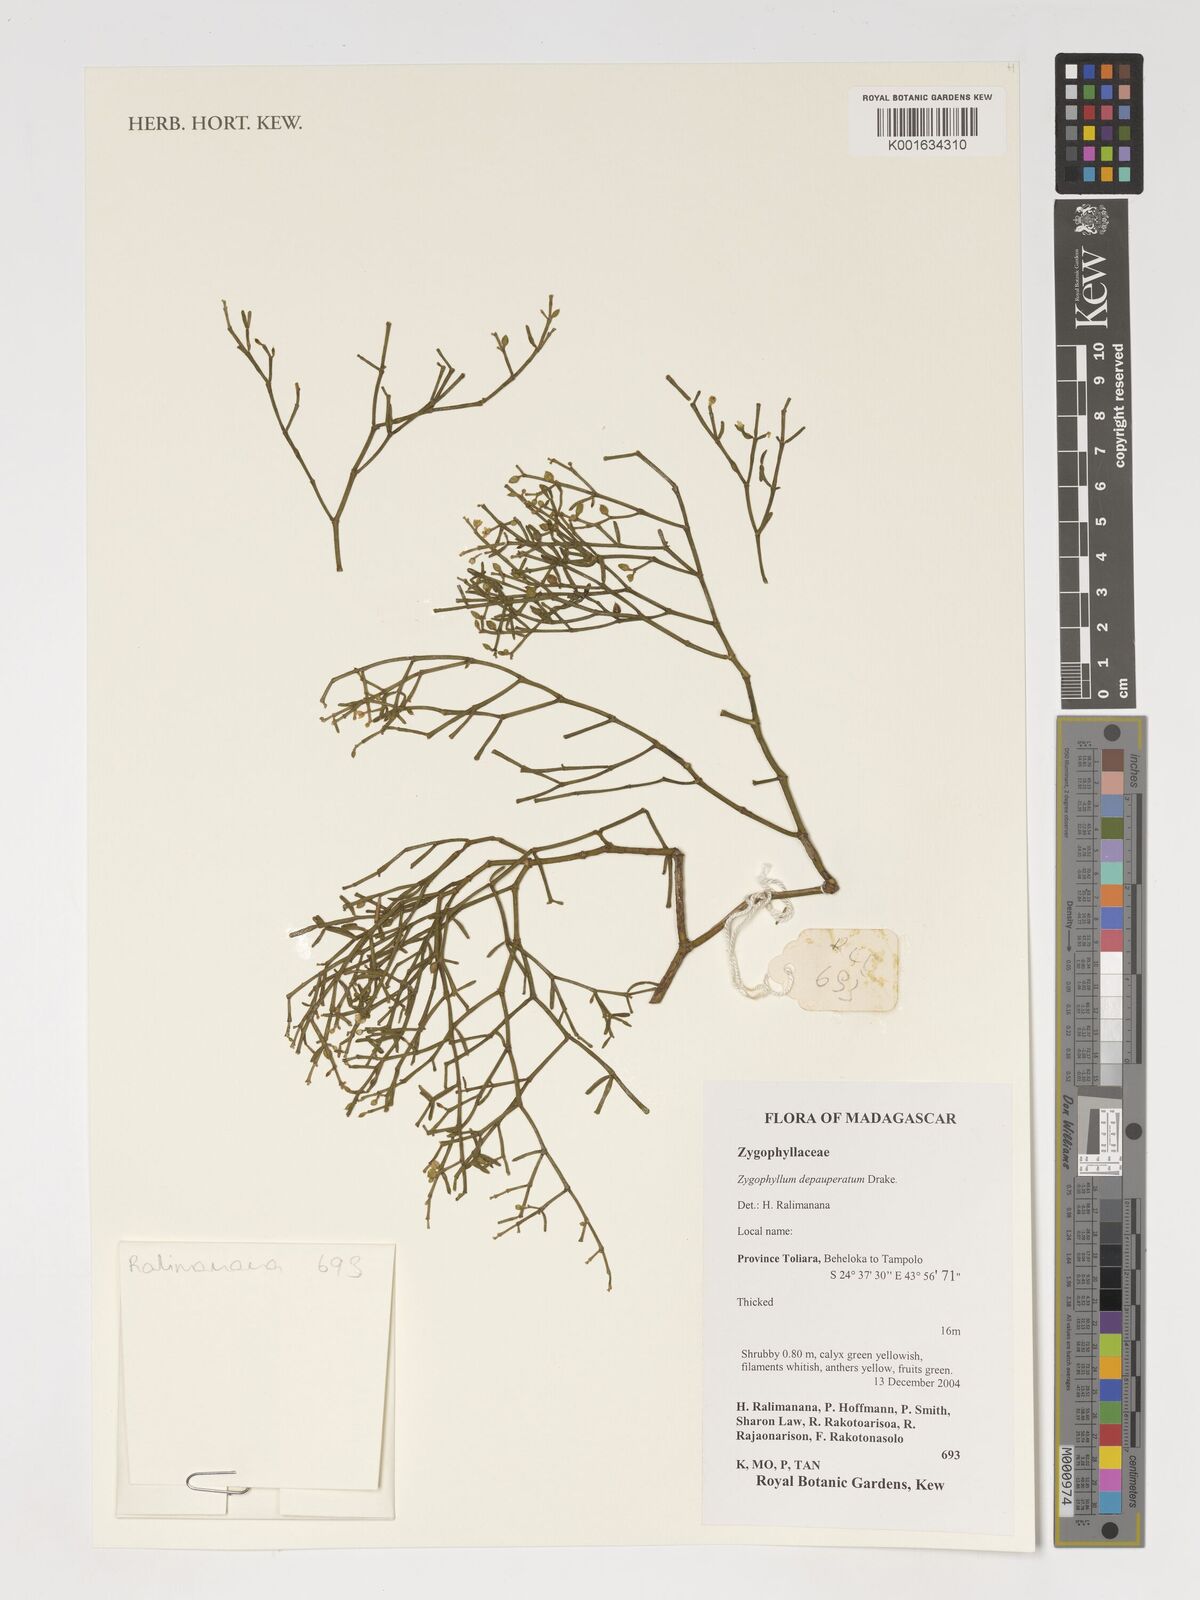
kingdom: Plantae
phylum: Tracheophyta
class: Magnoliopsida
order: Zygophyllales
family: Zygophyllaceae
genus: Tetraena
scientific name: Tetraena madagascariensis
